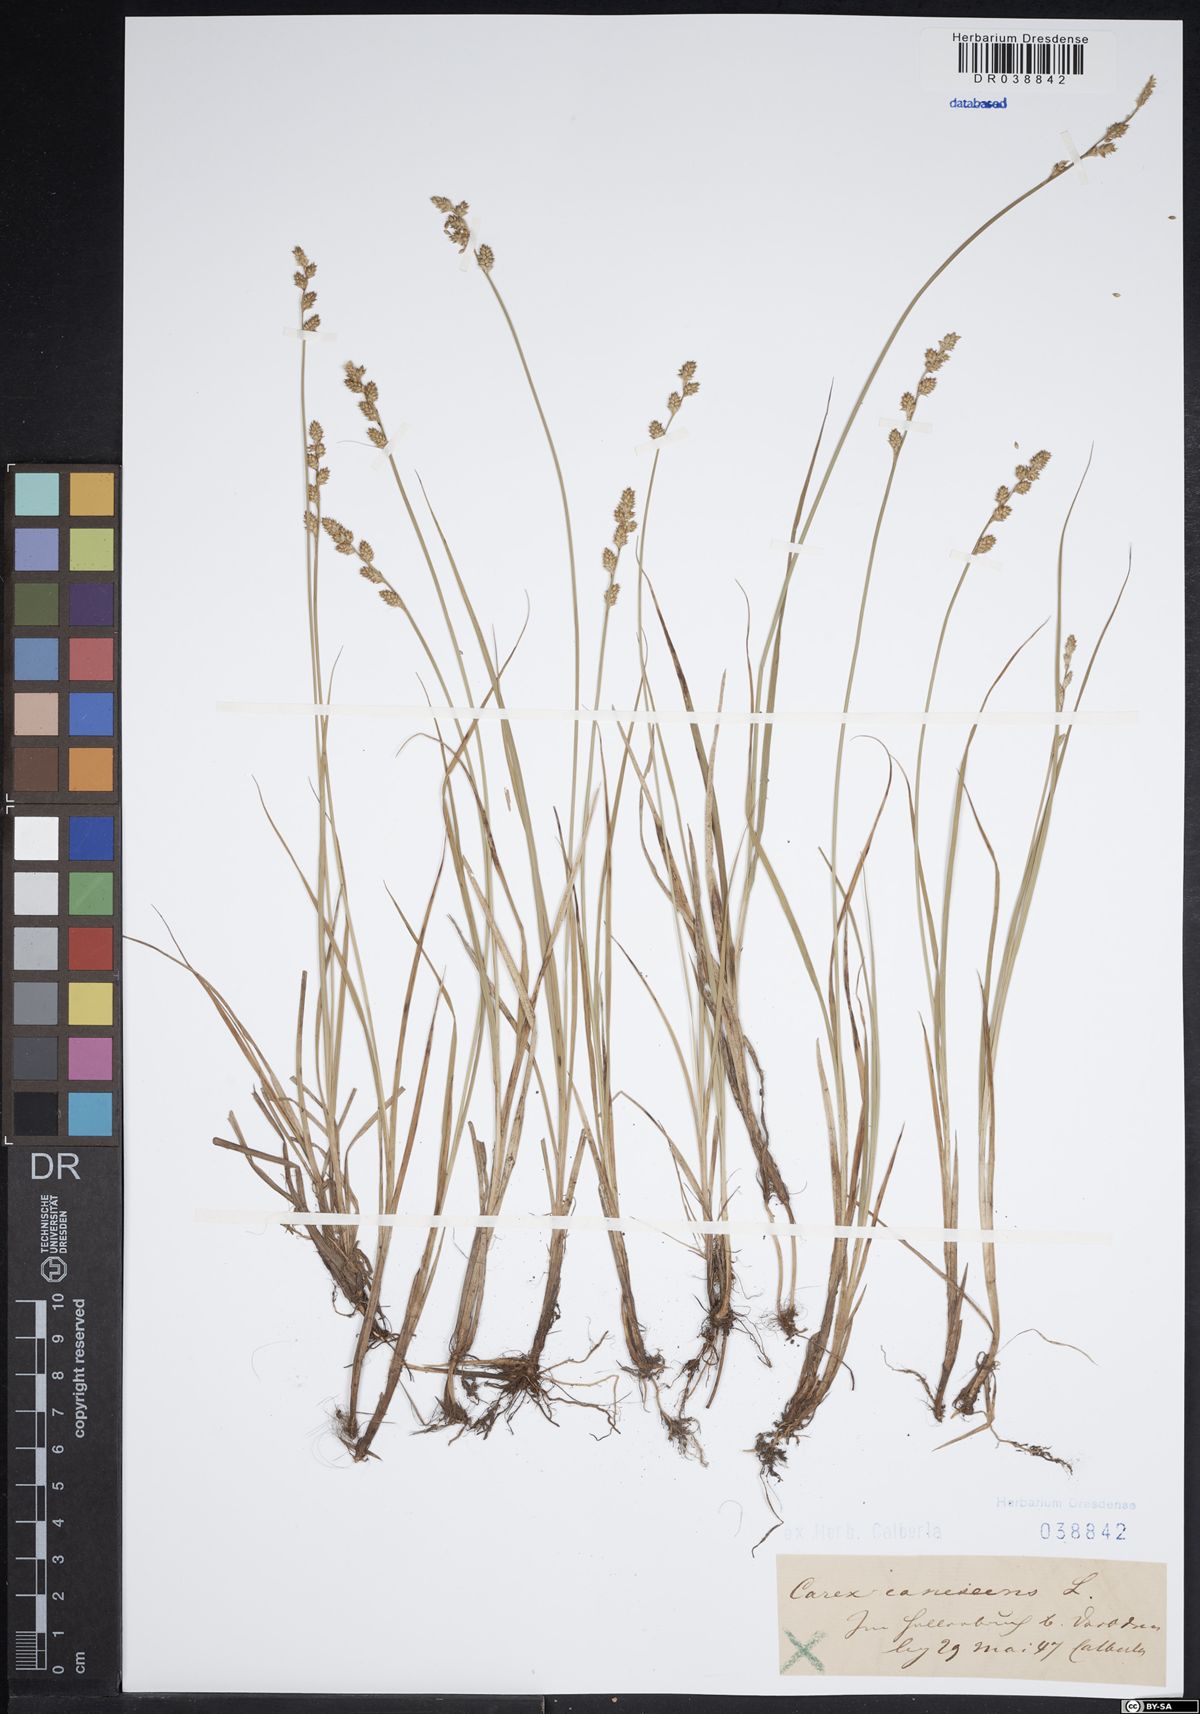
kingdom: Plantae
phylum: Tracheophyta
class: Liliopsida
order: Poales
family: Cyperaceae
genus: Carex
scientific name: Carex canescens
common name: White sedge
